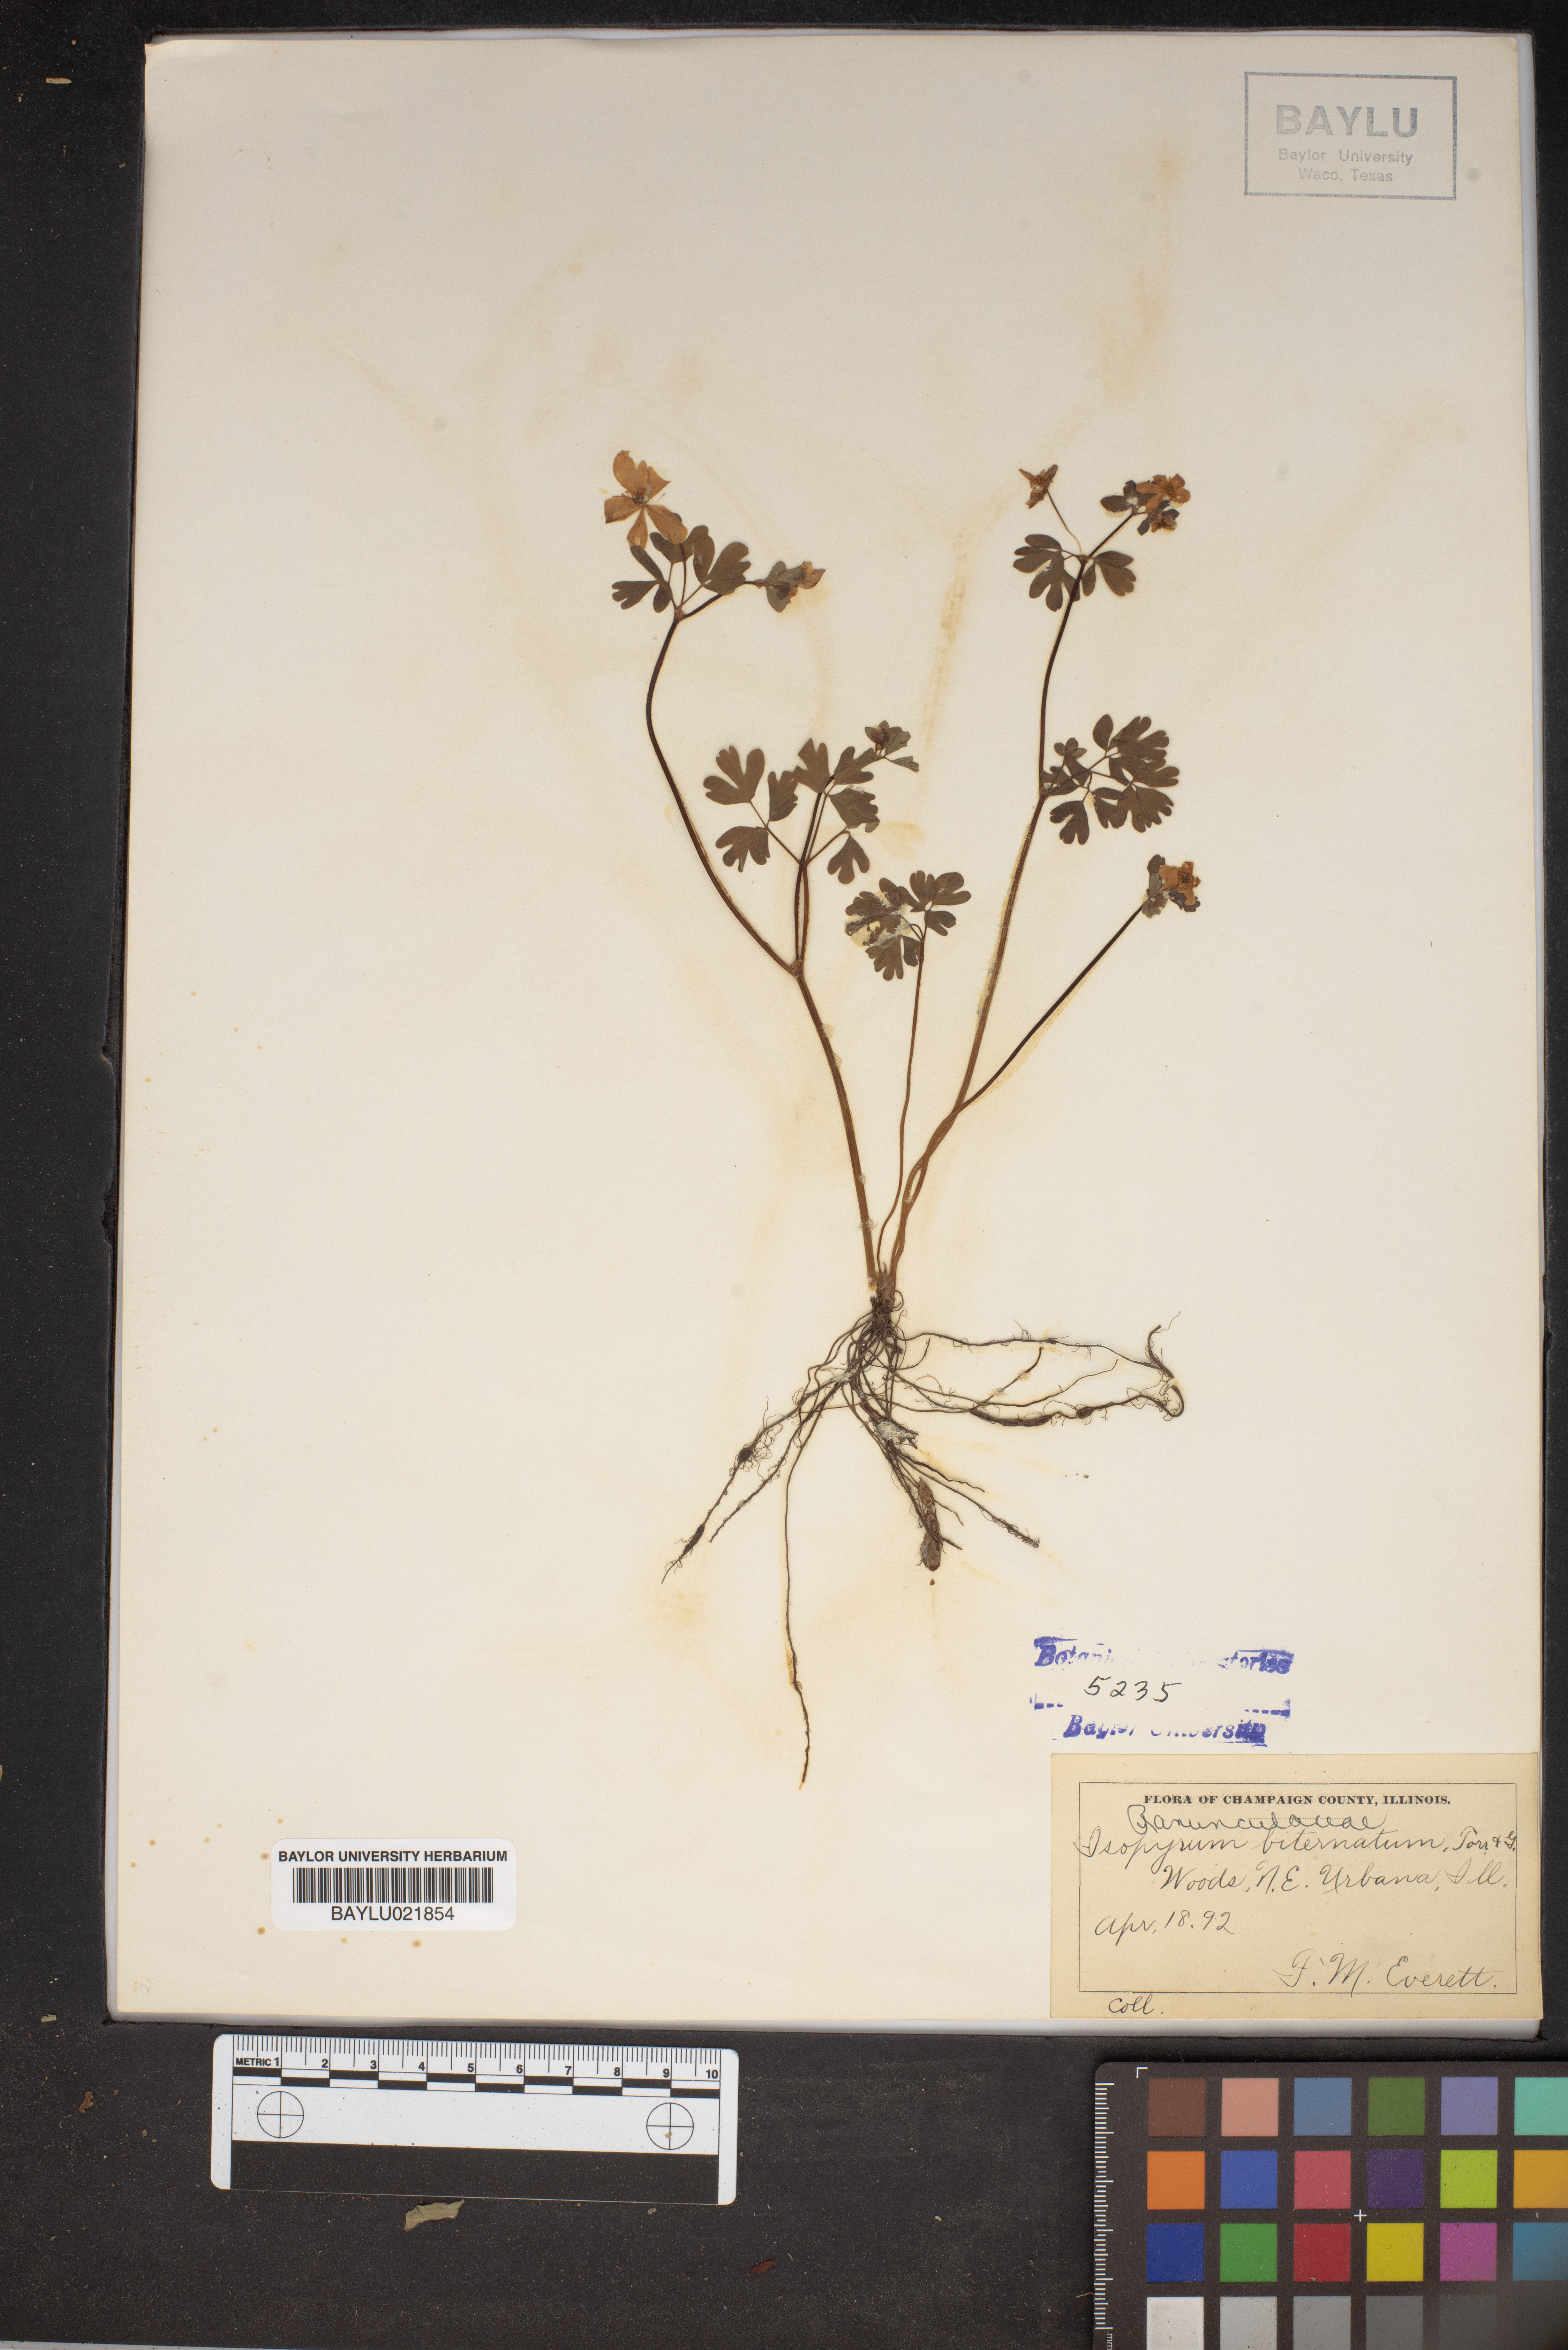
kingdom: Plantae
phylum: Tracheophyta
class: Magnoliopsida
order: Ranunculales
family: Ranunculaceae
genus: Enemion
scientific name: Enemion biternatum
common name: Eastern false rue-anemone
